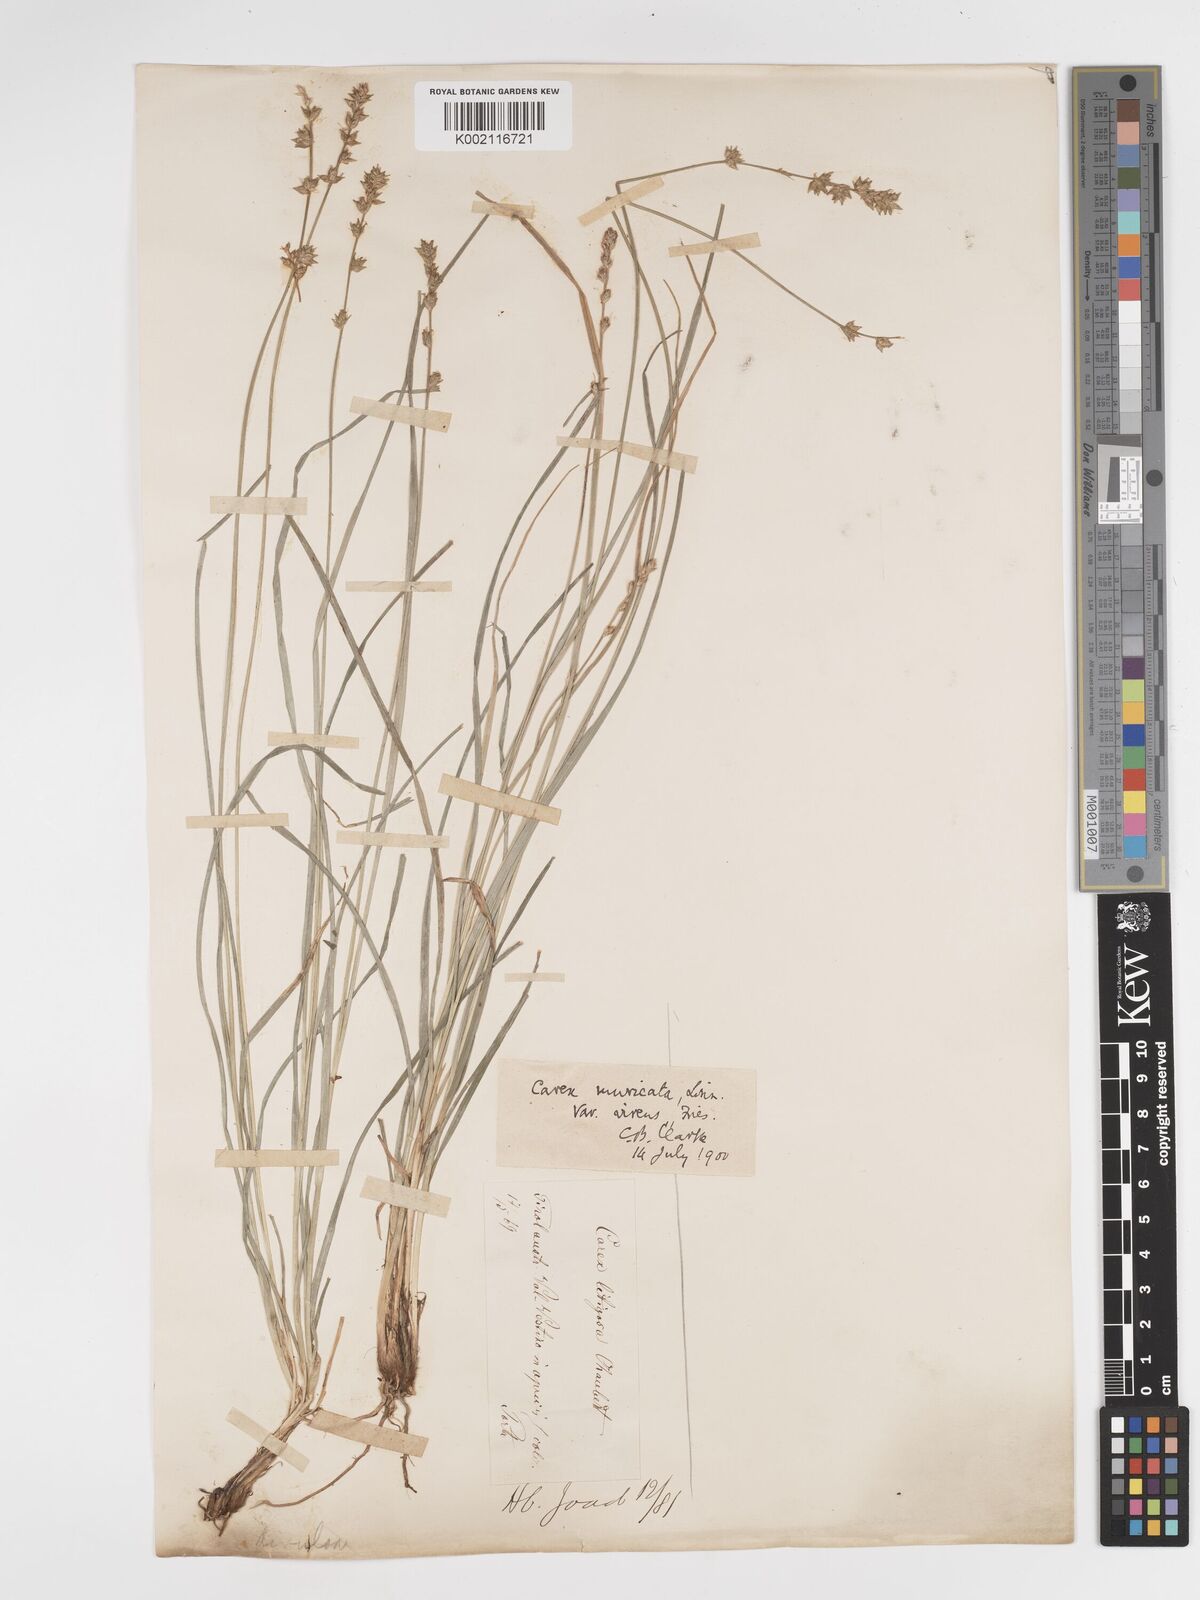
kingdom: Plantae
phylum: Tracheophyta
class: Liliopsida
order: Poales
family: Cyperaceae
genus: Carex
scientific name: Carex divulsa
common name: Grassland sedge
